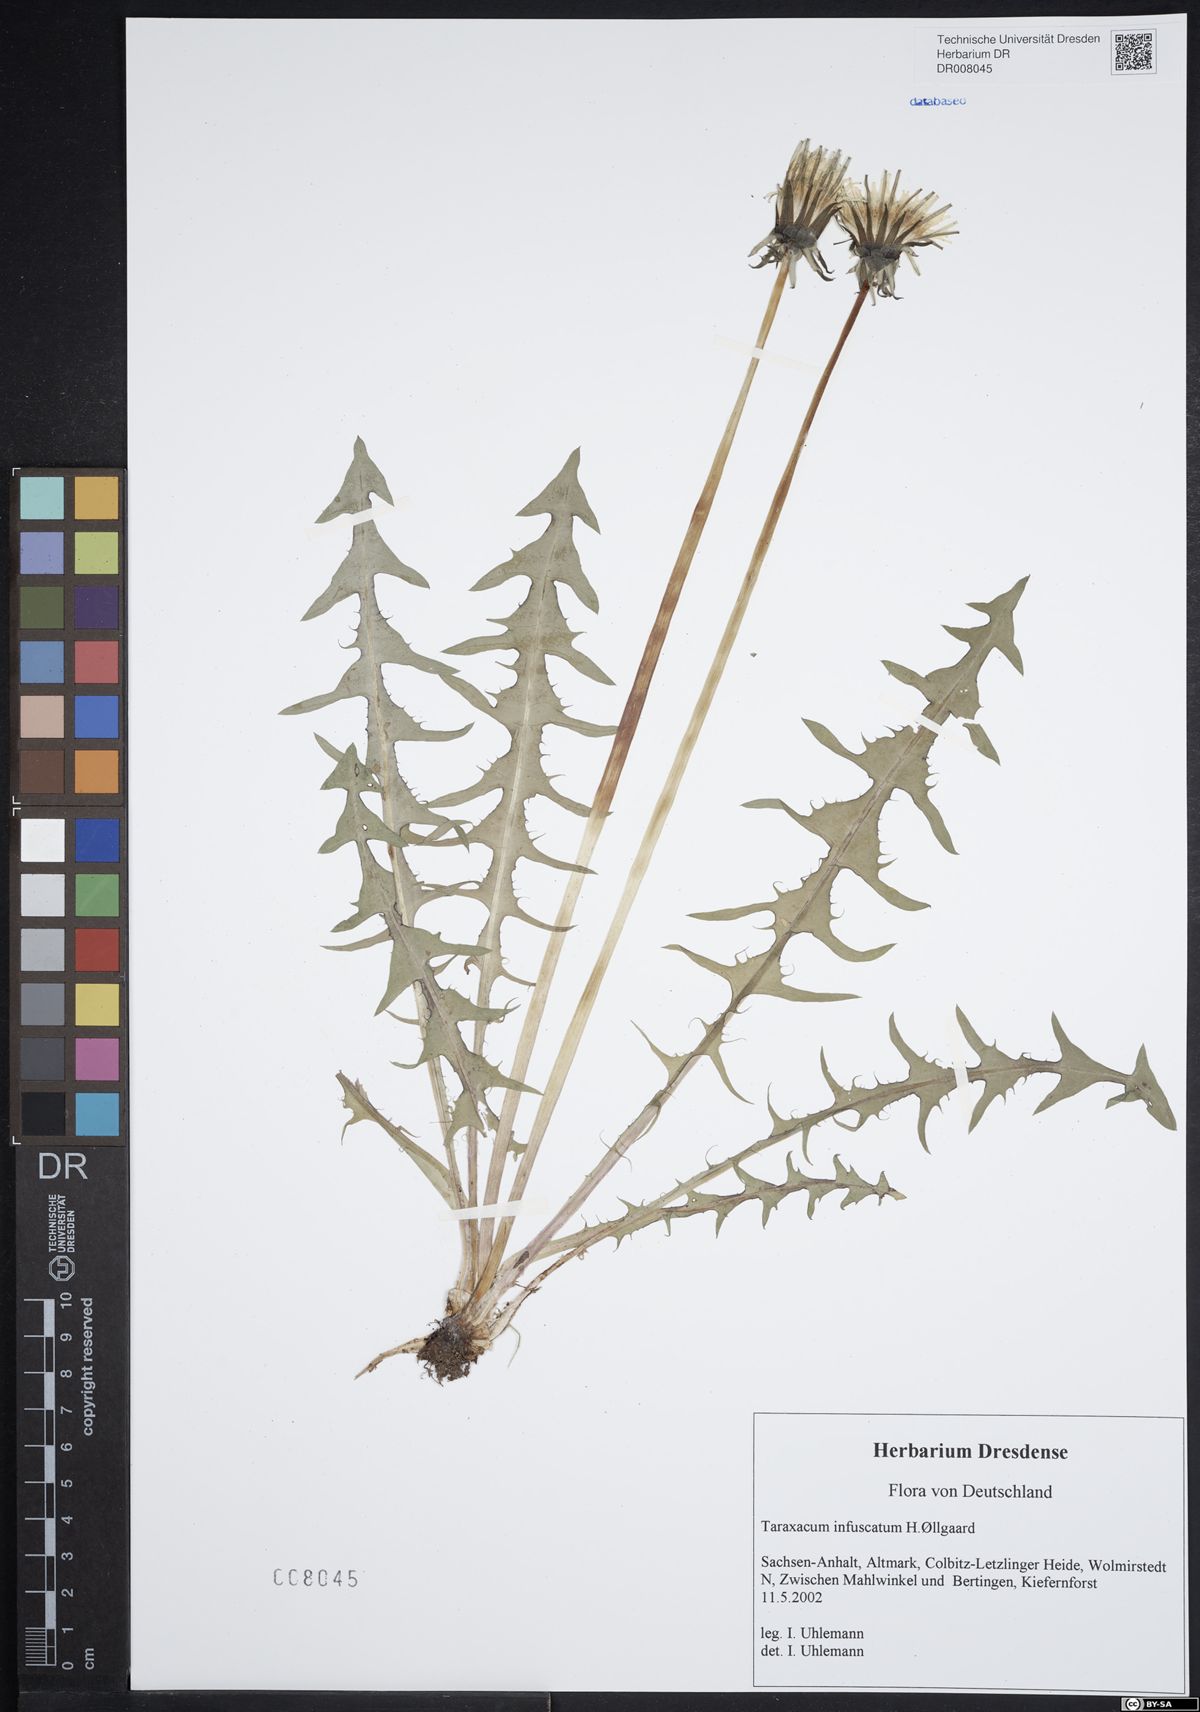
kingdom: Plantae
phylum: Tracheophyta
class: Magnoliopsida
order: Asterales
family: Asteraceae
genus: Taraxacum
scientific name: Taraxacum infuscatum
